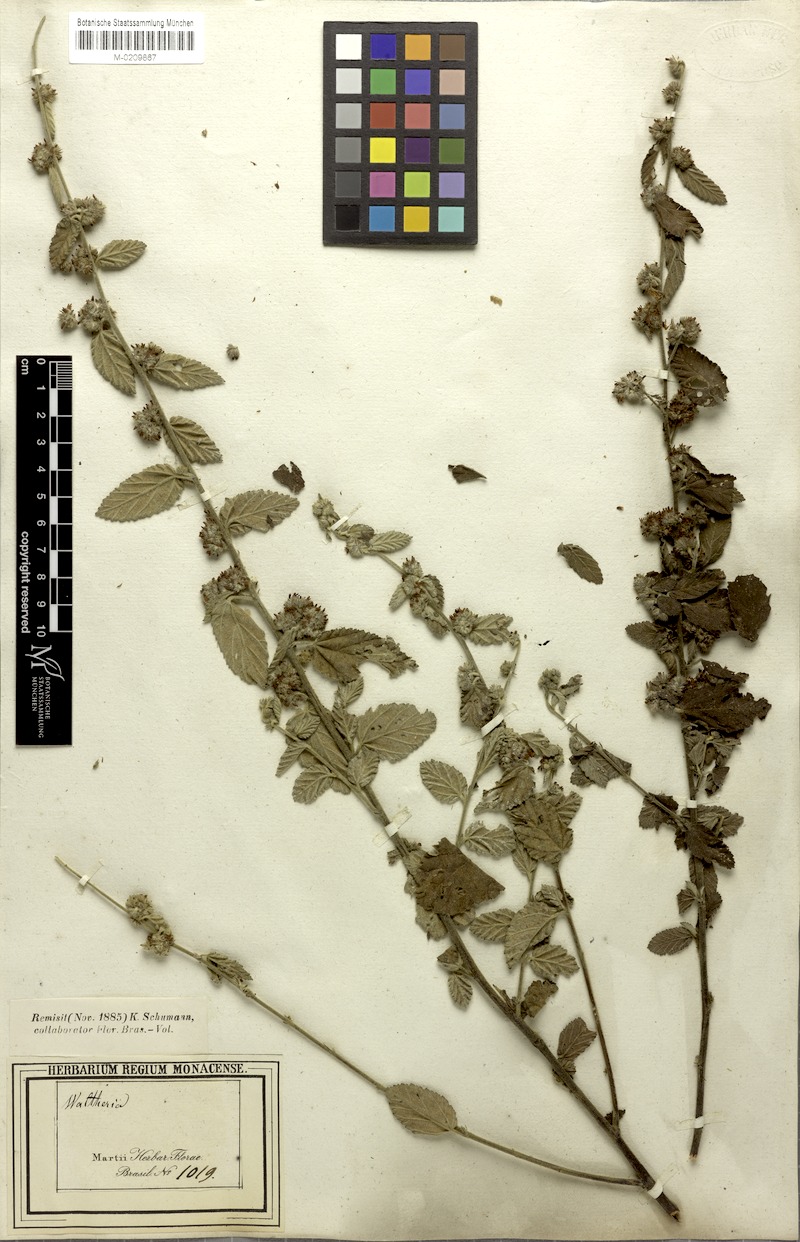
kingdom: Plantae
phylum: Tracheophyta
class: Magnoliopsida
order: Malvales
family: Malvaceae
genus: Waltheria
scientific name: Waltheria indica
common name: Leather-coat
